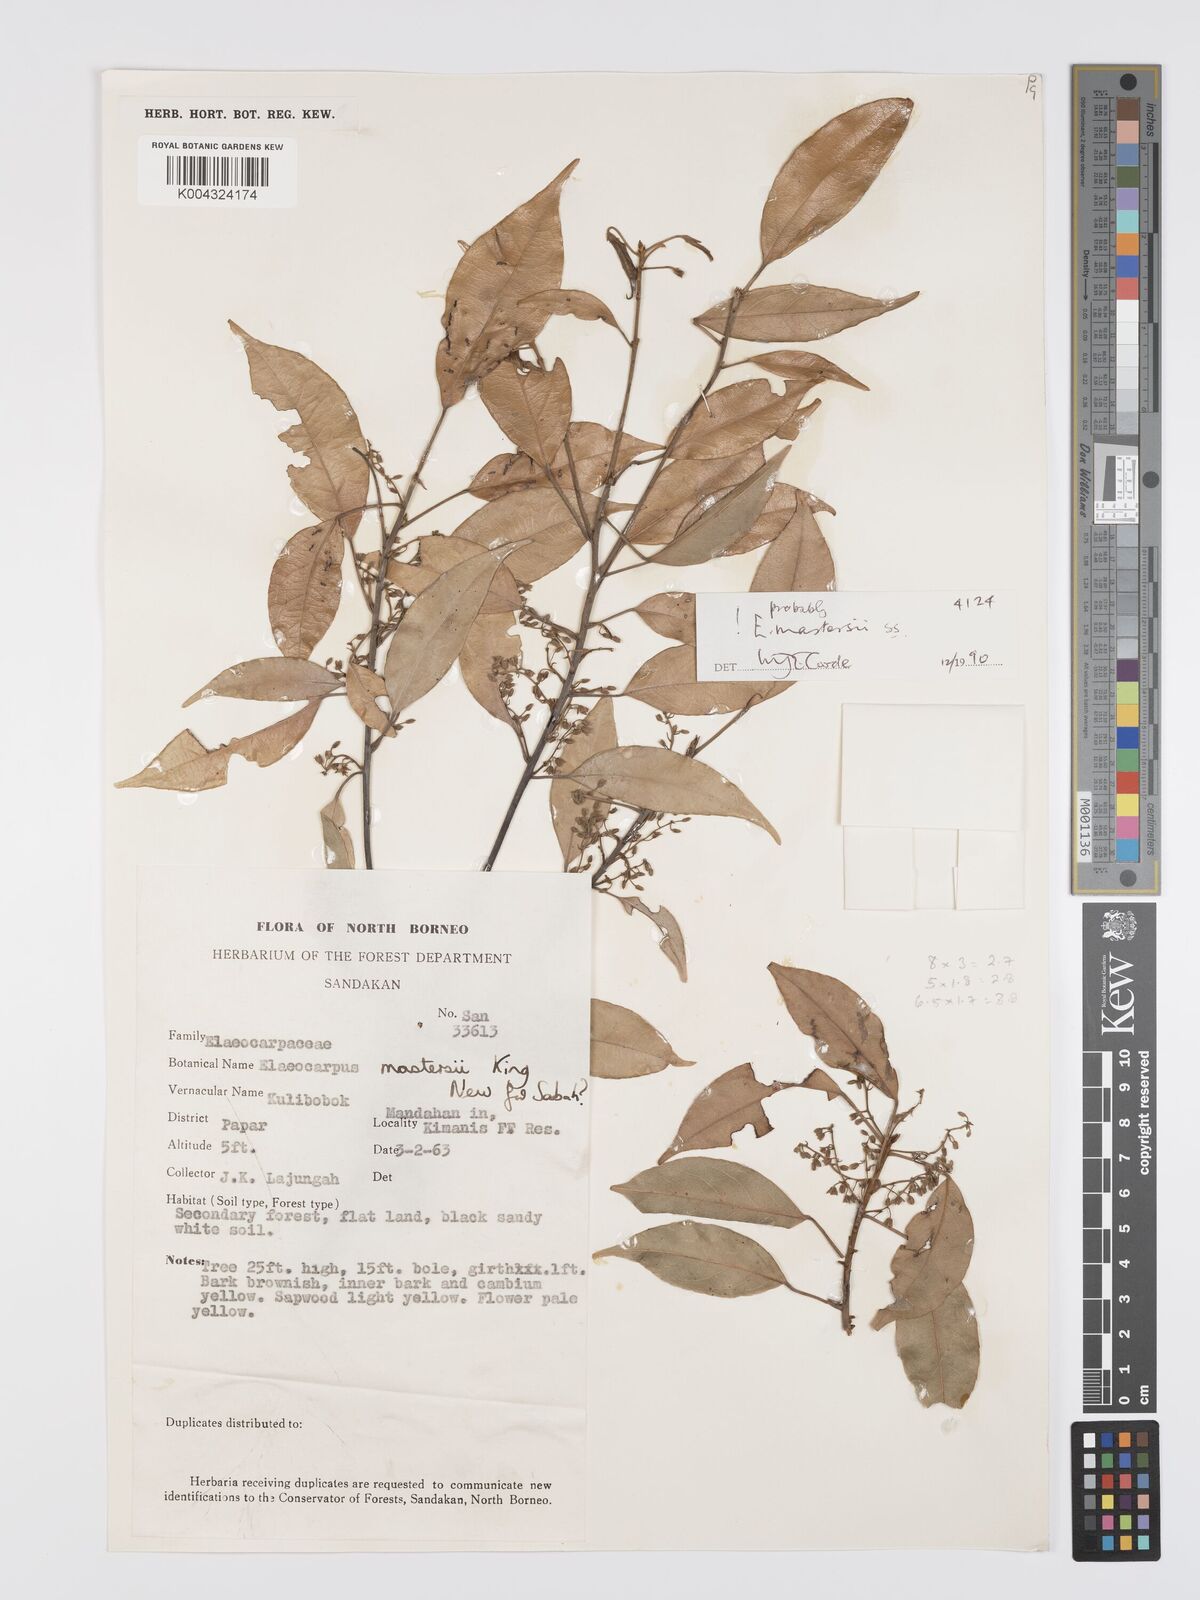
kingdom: Plantae
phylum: Tracheophyta
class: Magnoliopsida
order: Oxalidales
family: Elaeocarpaceae
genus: Elaeocarpus
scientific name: Elaeocarpus mastersii
